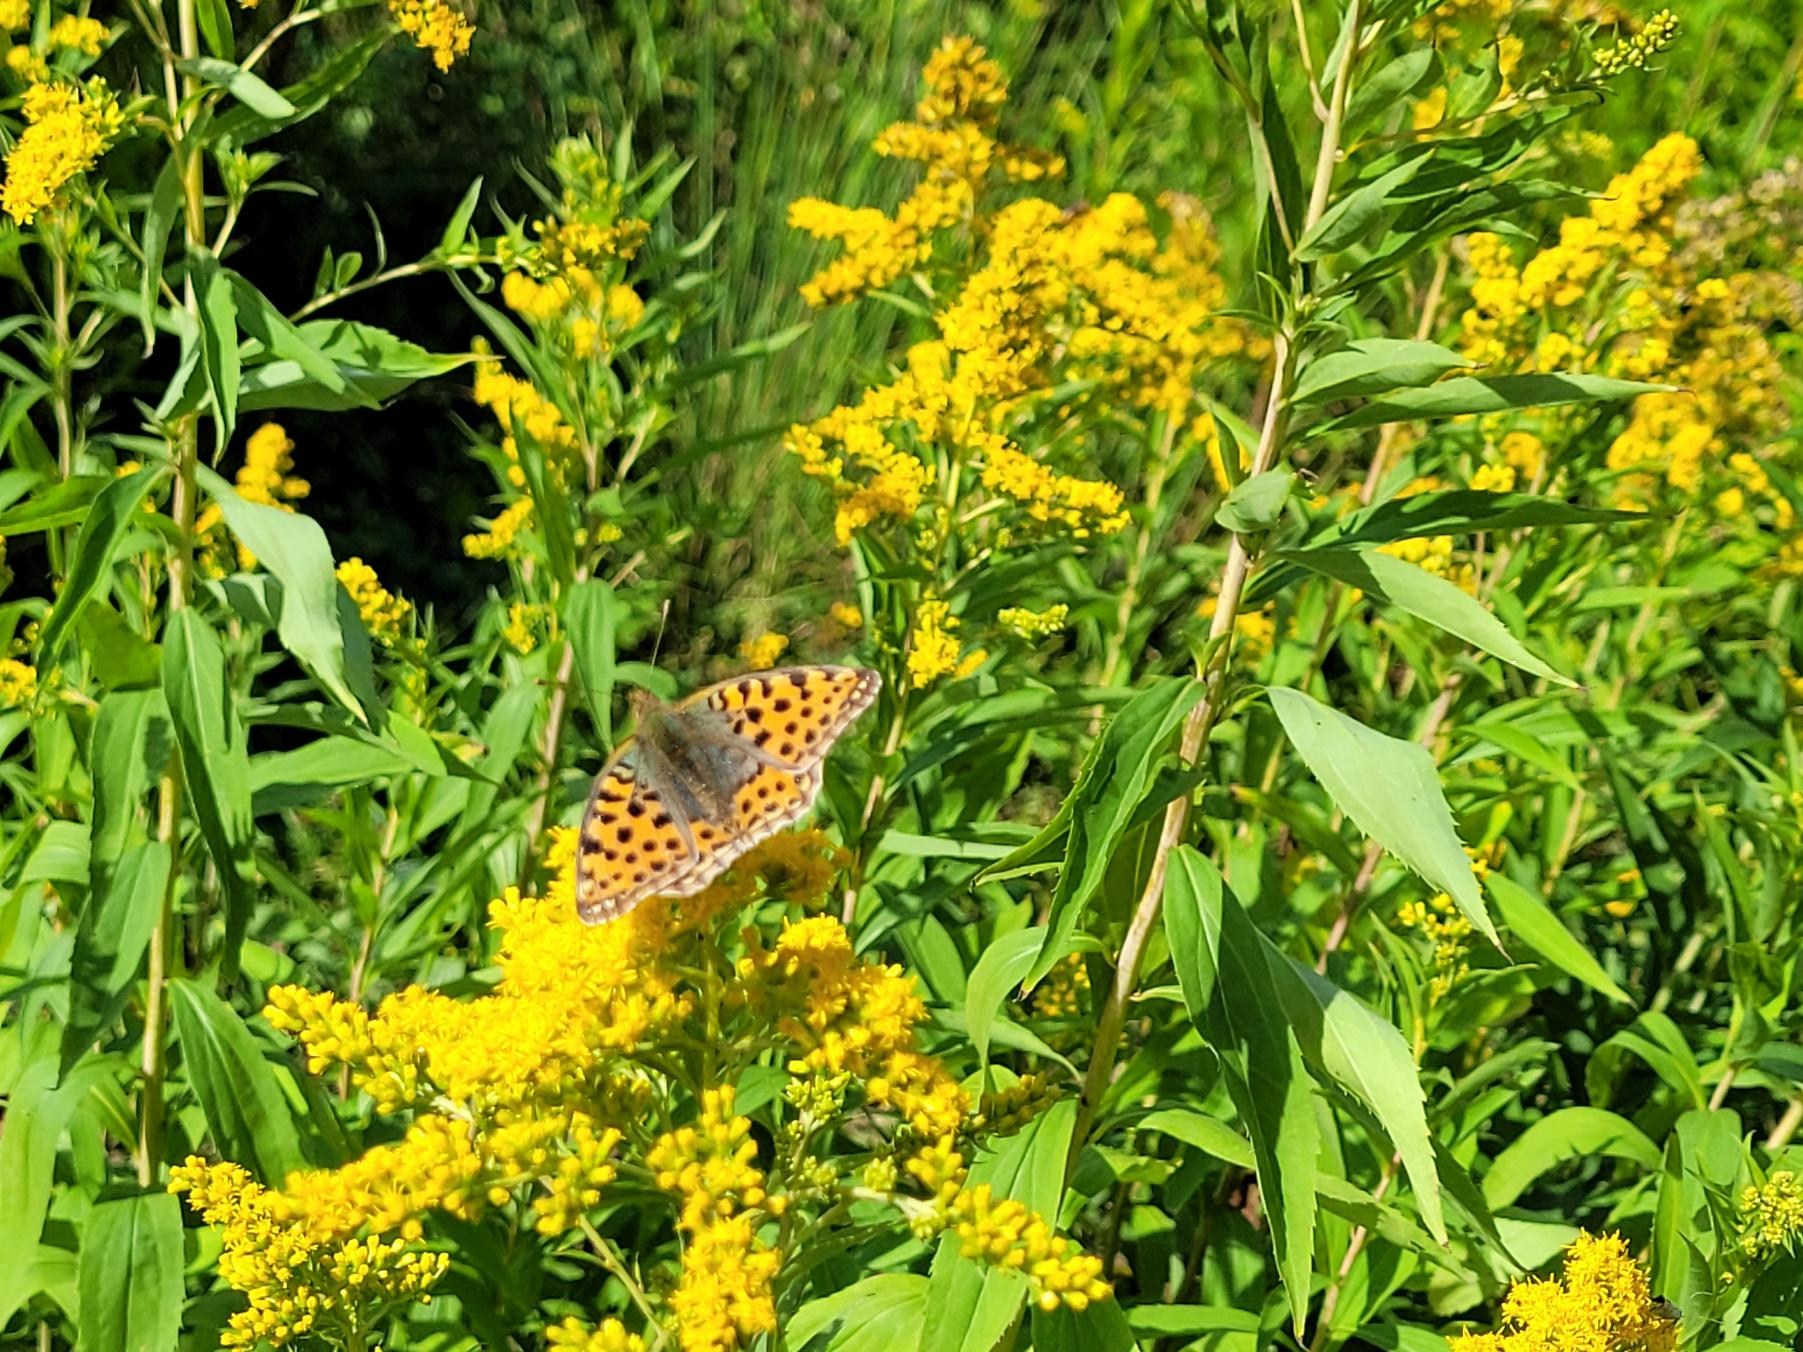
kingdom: Animalia
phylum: Arthropoda
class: Insecta
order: Lepidoptera
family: Nymphalidae
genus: Issoria
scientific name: Issoria lathonia
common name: Storplettet perlemorsommerfugl
